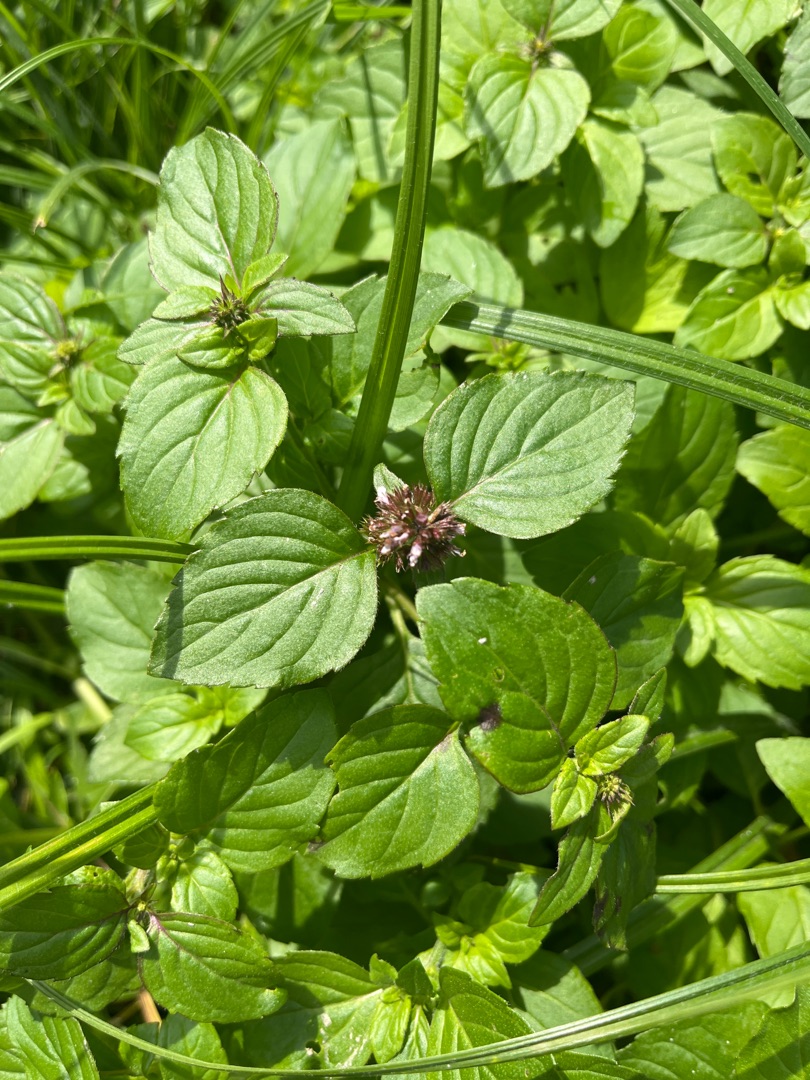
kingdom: Plantae
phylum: Tracheophyta
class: Magnoliopsida
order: Lamiales
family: Lamiaceae
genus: Mentha
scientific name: Mentha aquatica
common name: Vand-mynte
